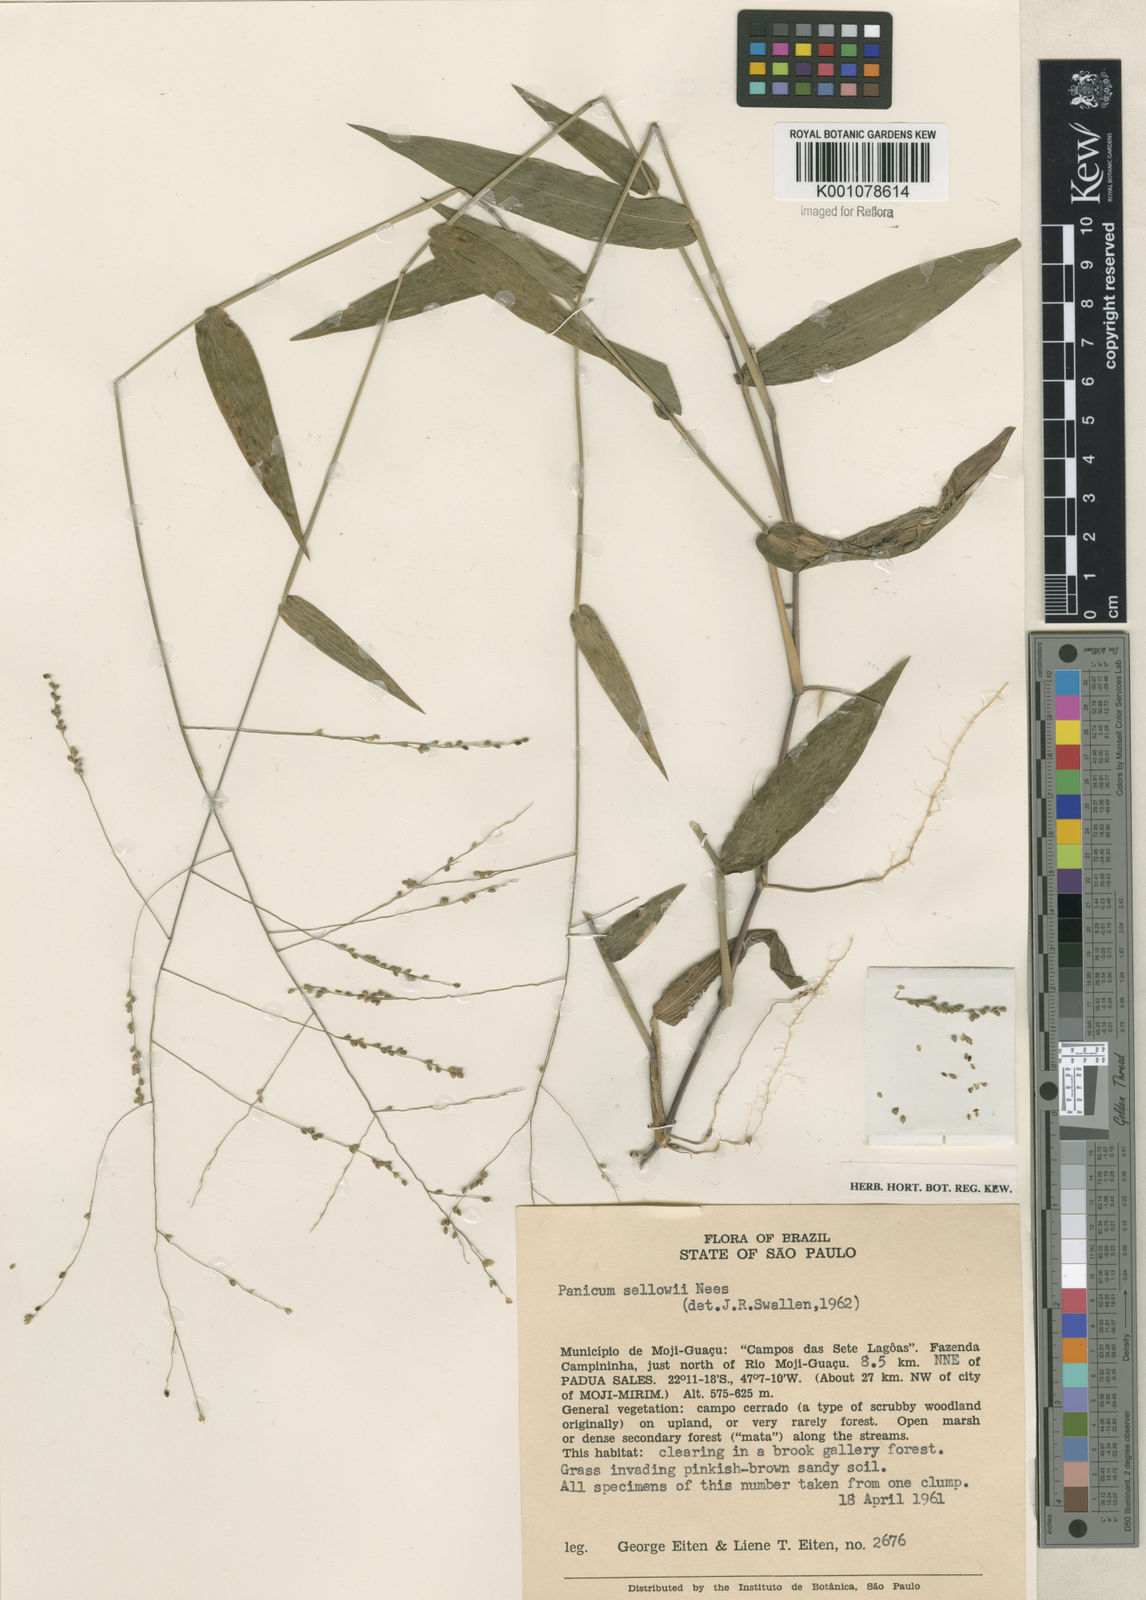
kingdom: Plantae
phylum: Tracheophyta
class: Liliopsida
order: Poales
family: Poaceae
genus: Panicum
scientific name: Panicum sellowii
